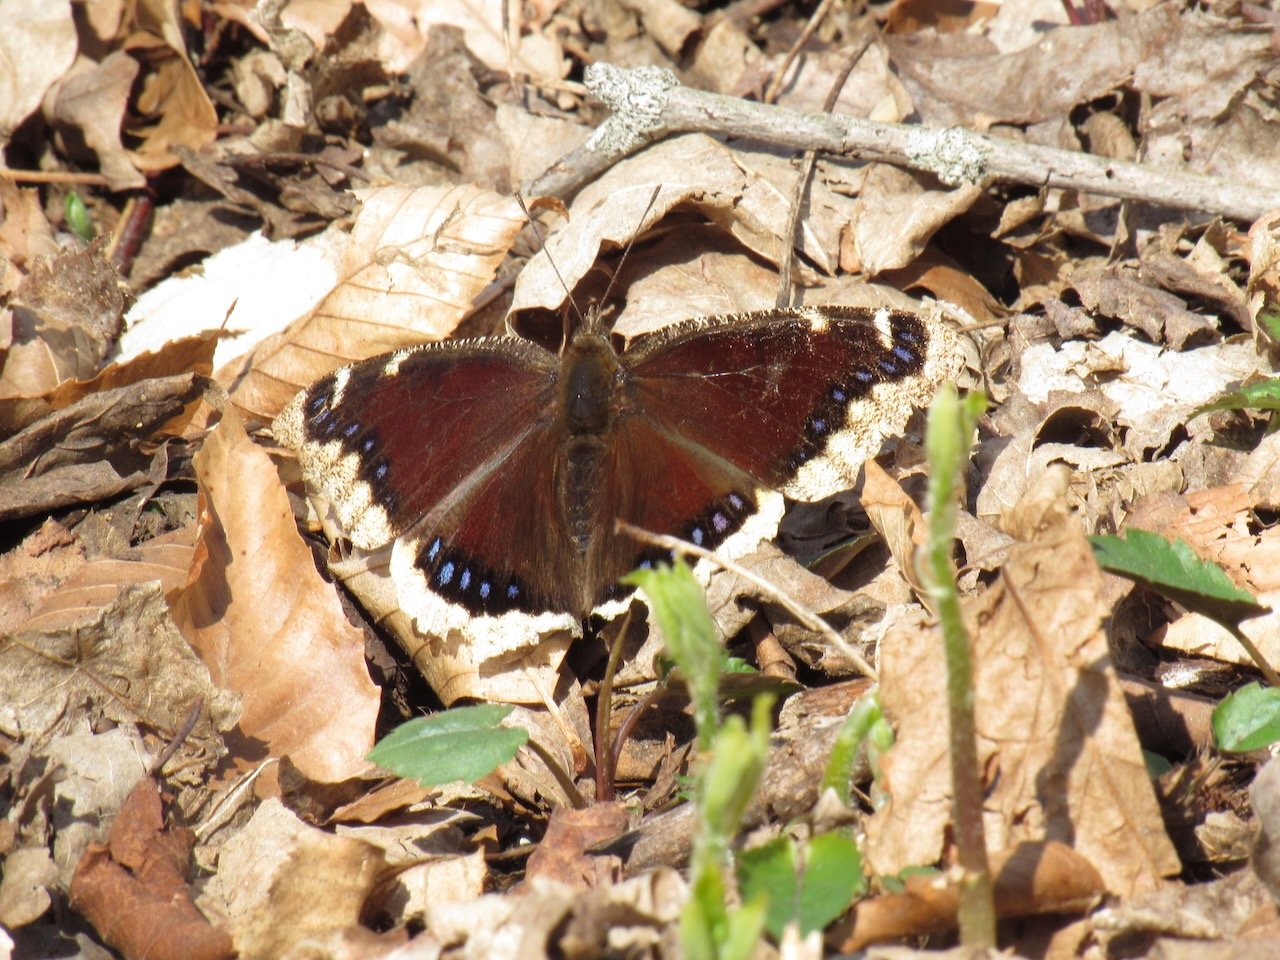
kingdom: Animalia
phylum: Arthropoda
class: Insecta
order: Lepidoptera
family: Nymphalidae
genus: Nymphalis
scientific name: Nymphalis antiopa
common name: Mourning Cloak
